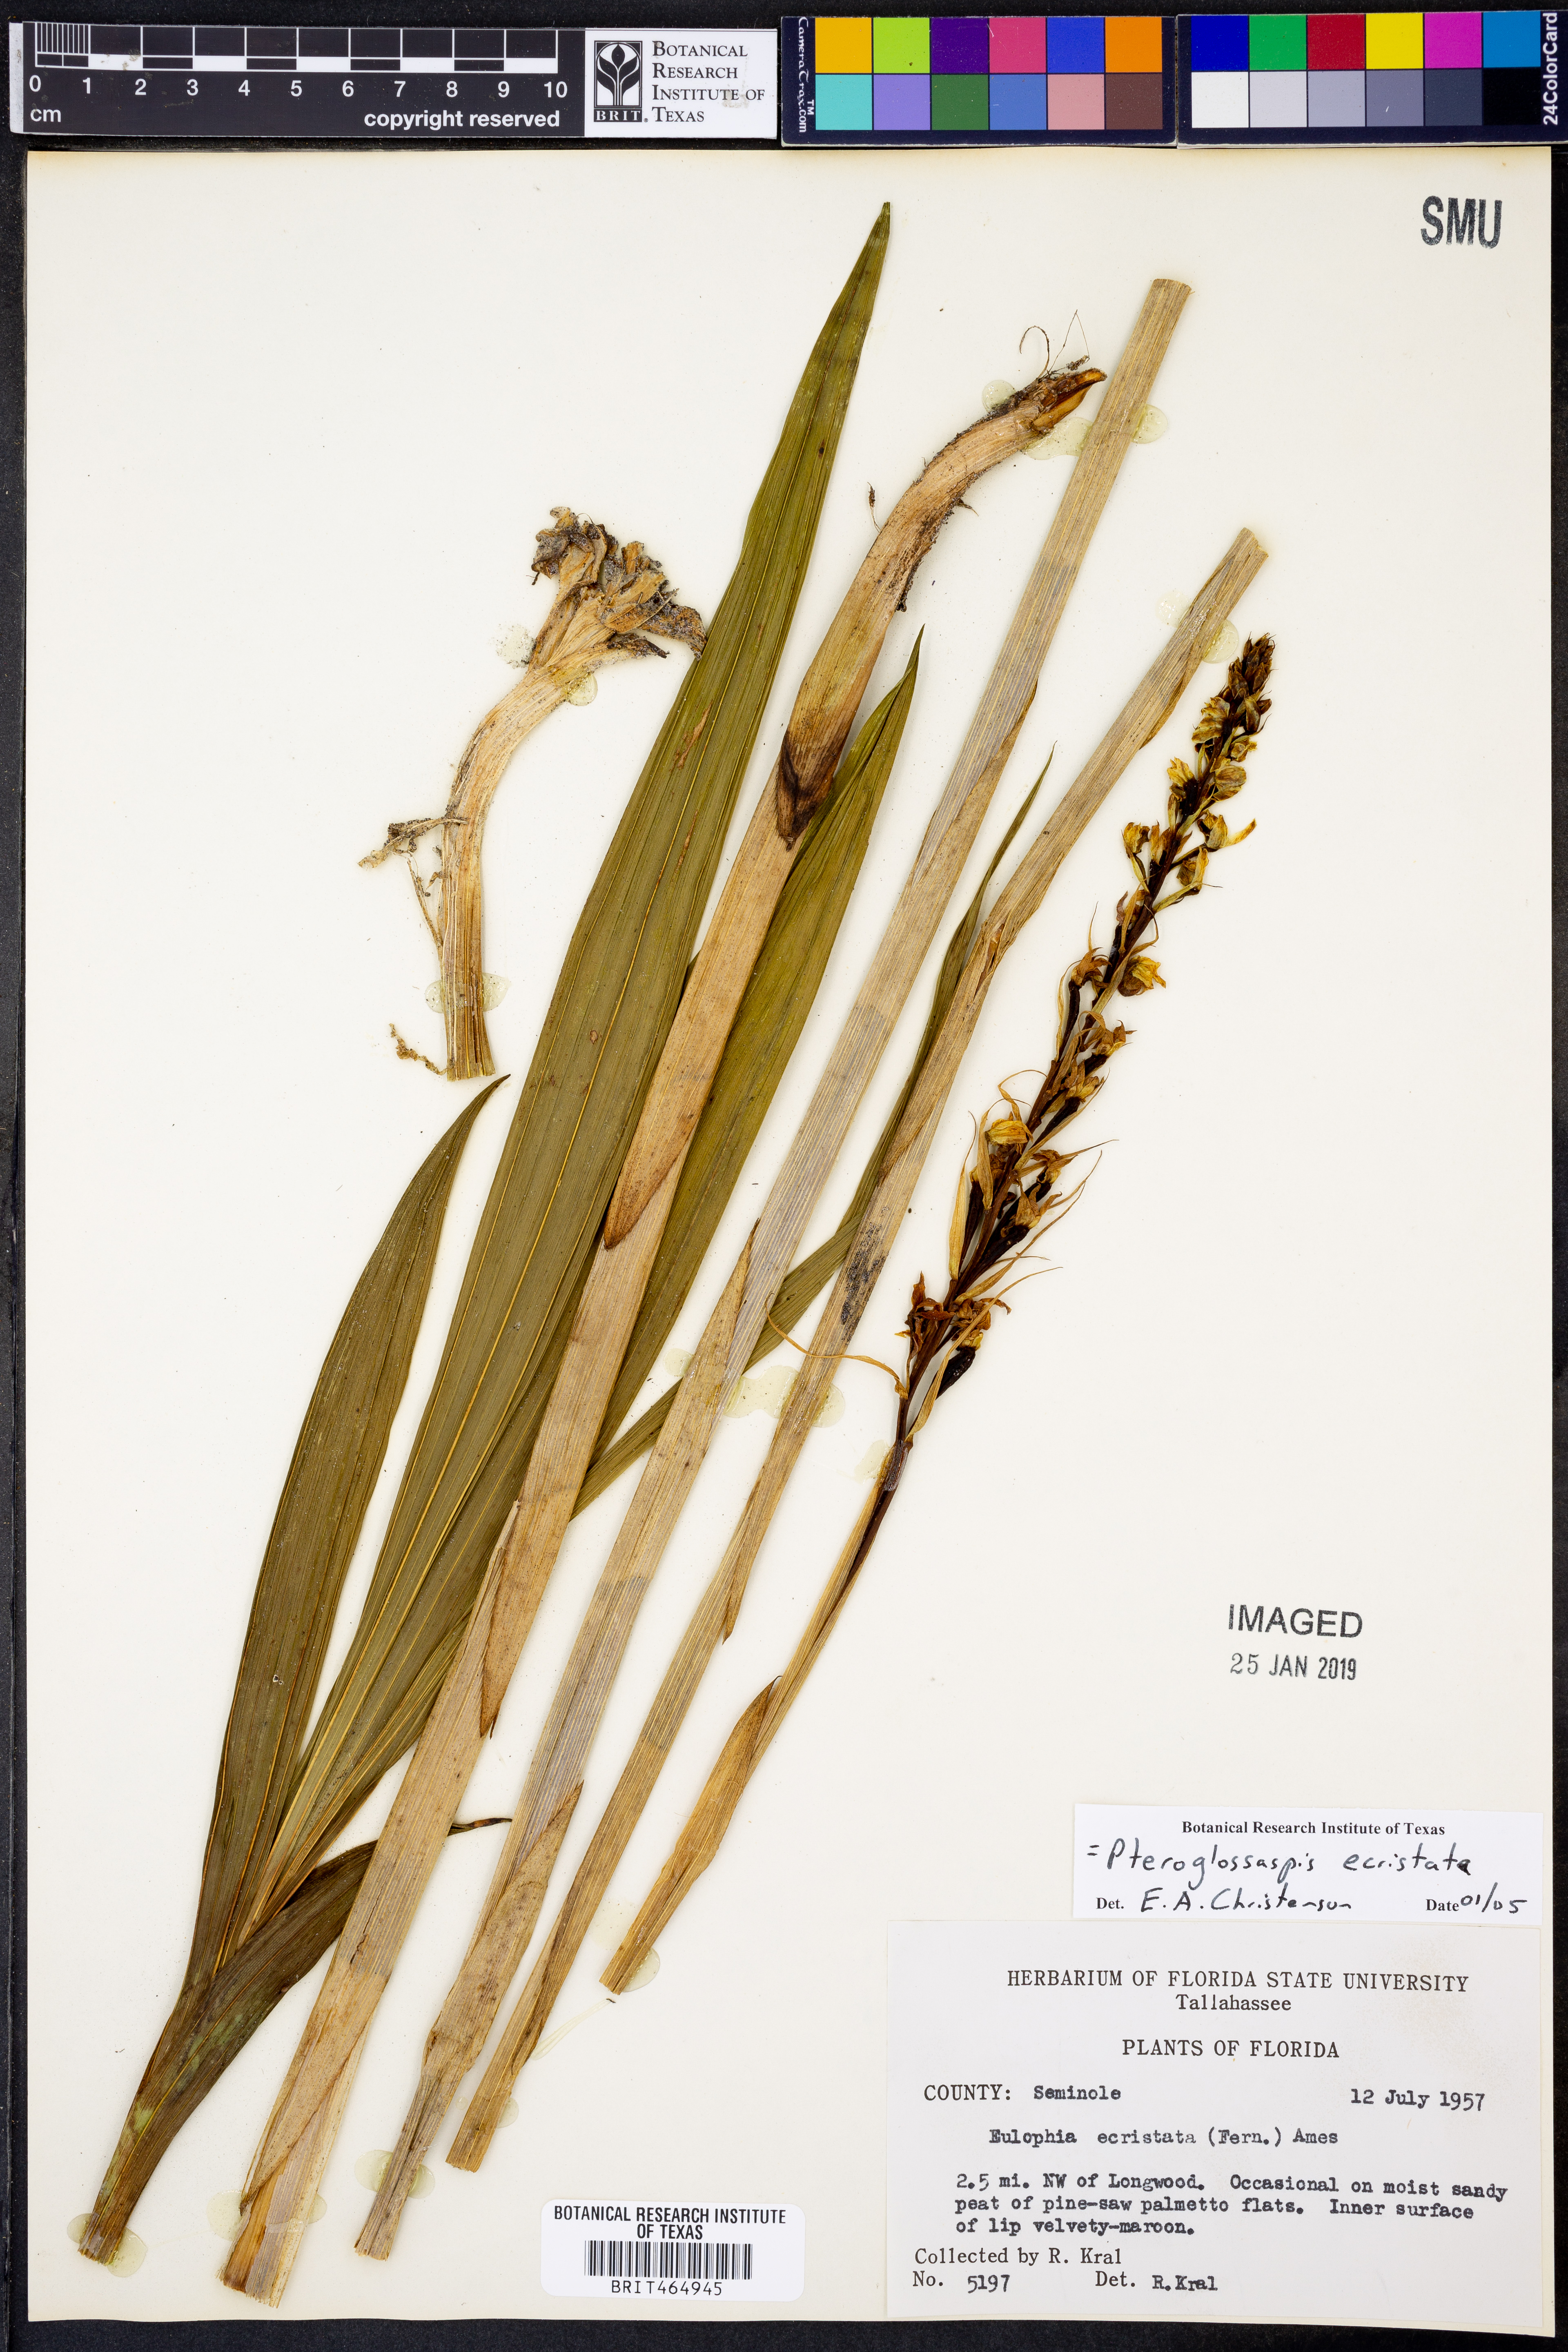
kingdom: Plantae
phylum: Tracheophyta
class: Liliopsida
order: Asparagales
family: Orchidaceae
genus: Eulophia
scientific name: Eulophia ecristata
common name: Giant orchid
